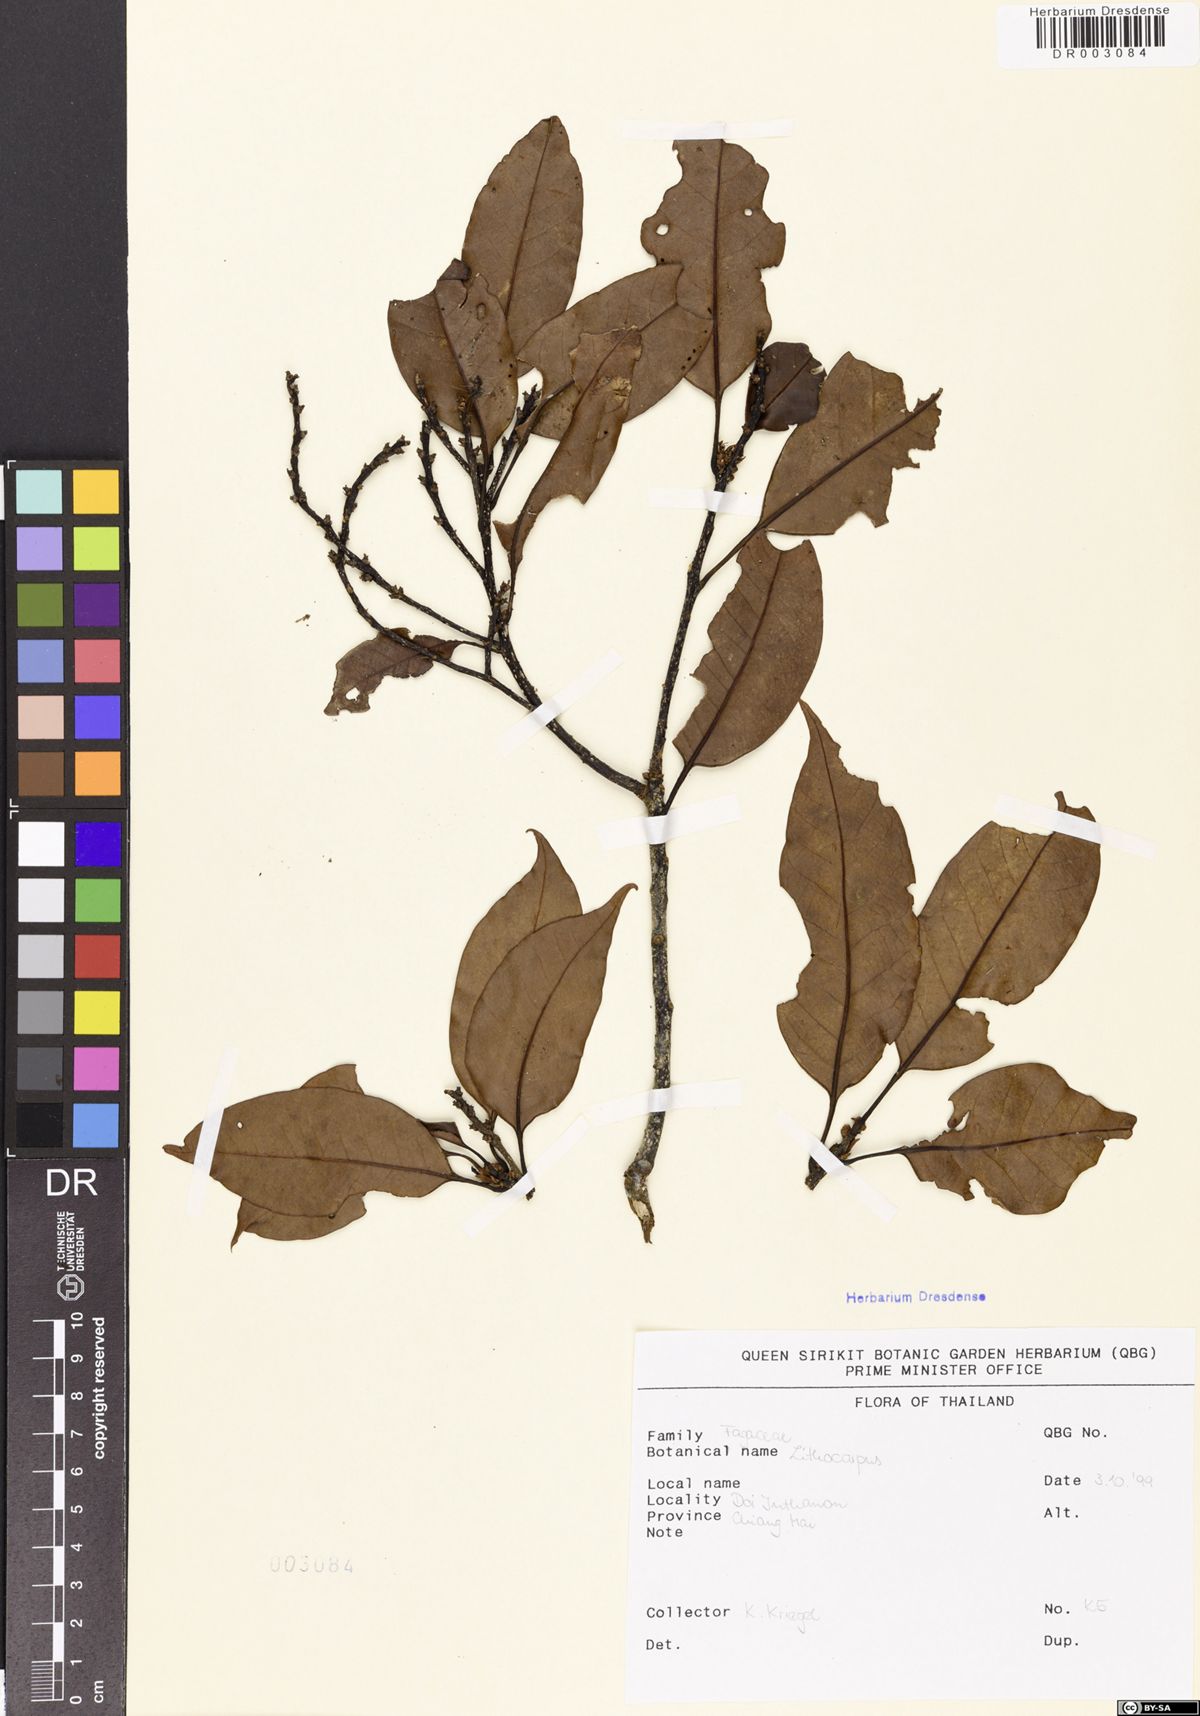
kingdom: Plantae
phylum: Tracheophyta
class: Magnoliopsida
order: Fagales
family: Fagaceae
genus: Lithocarpus
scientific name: Lithocarpus
